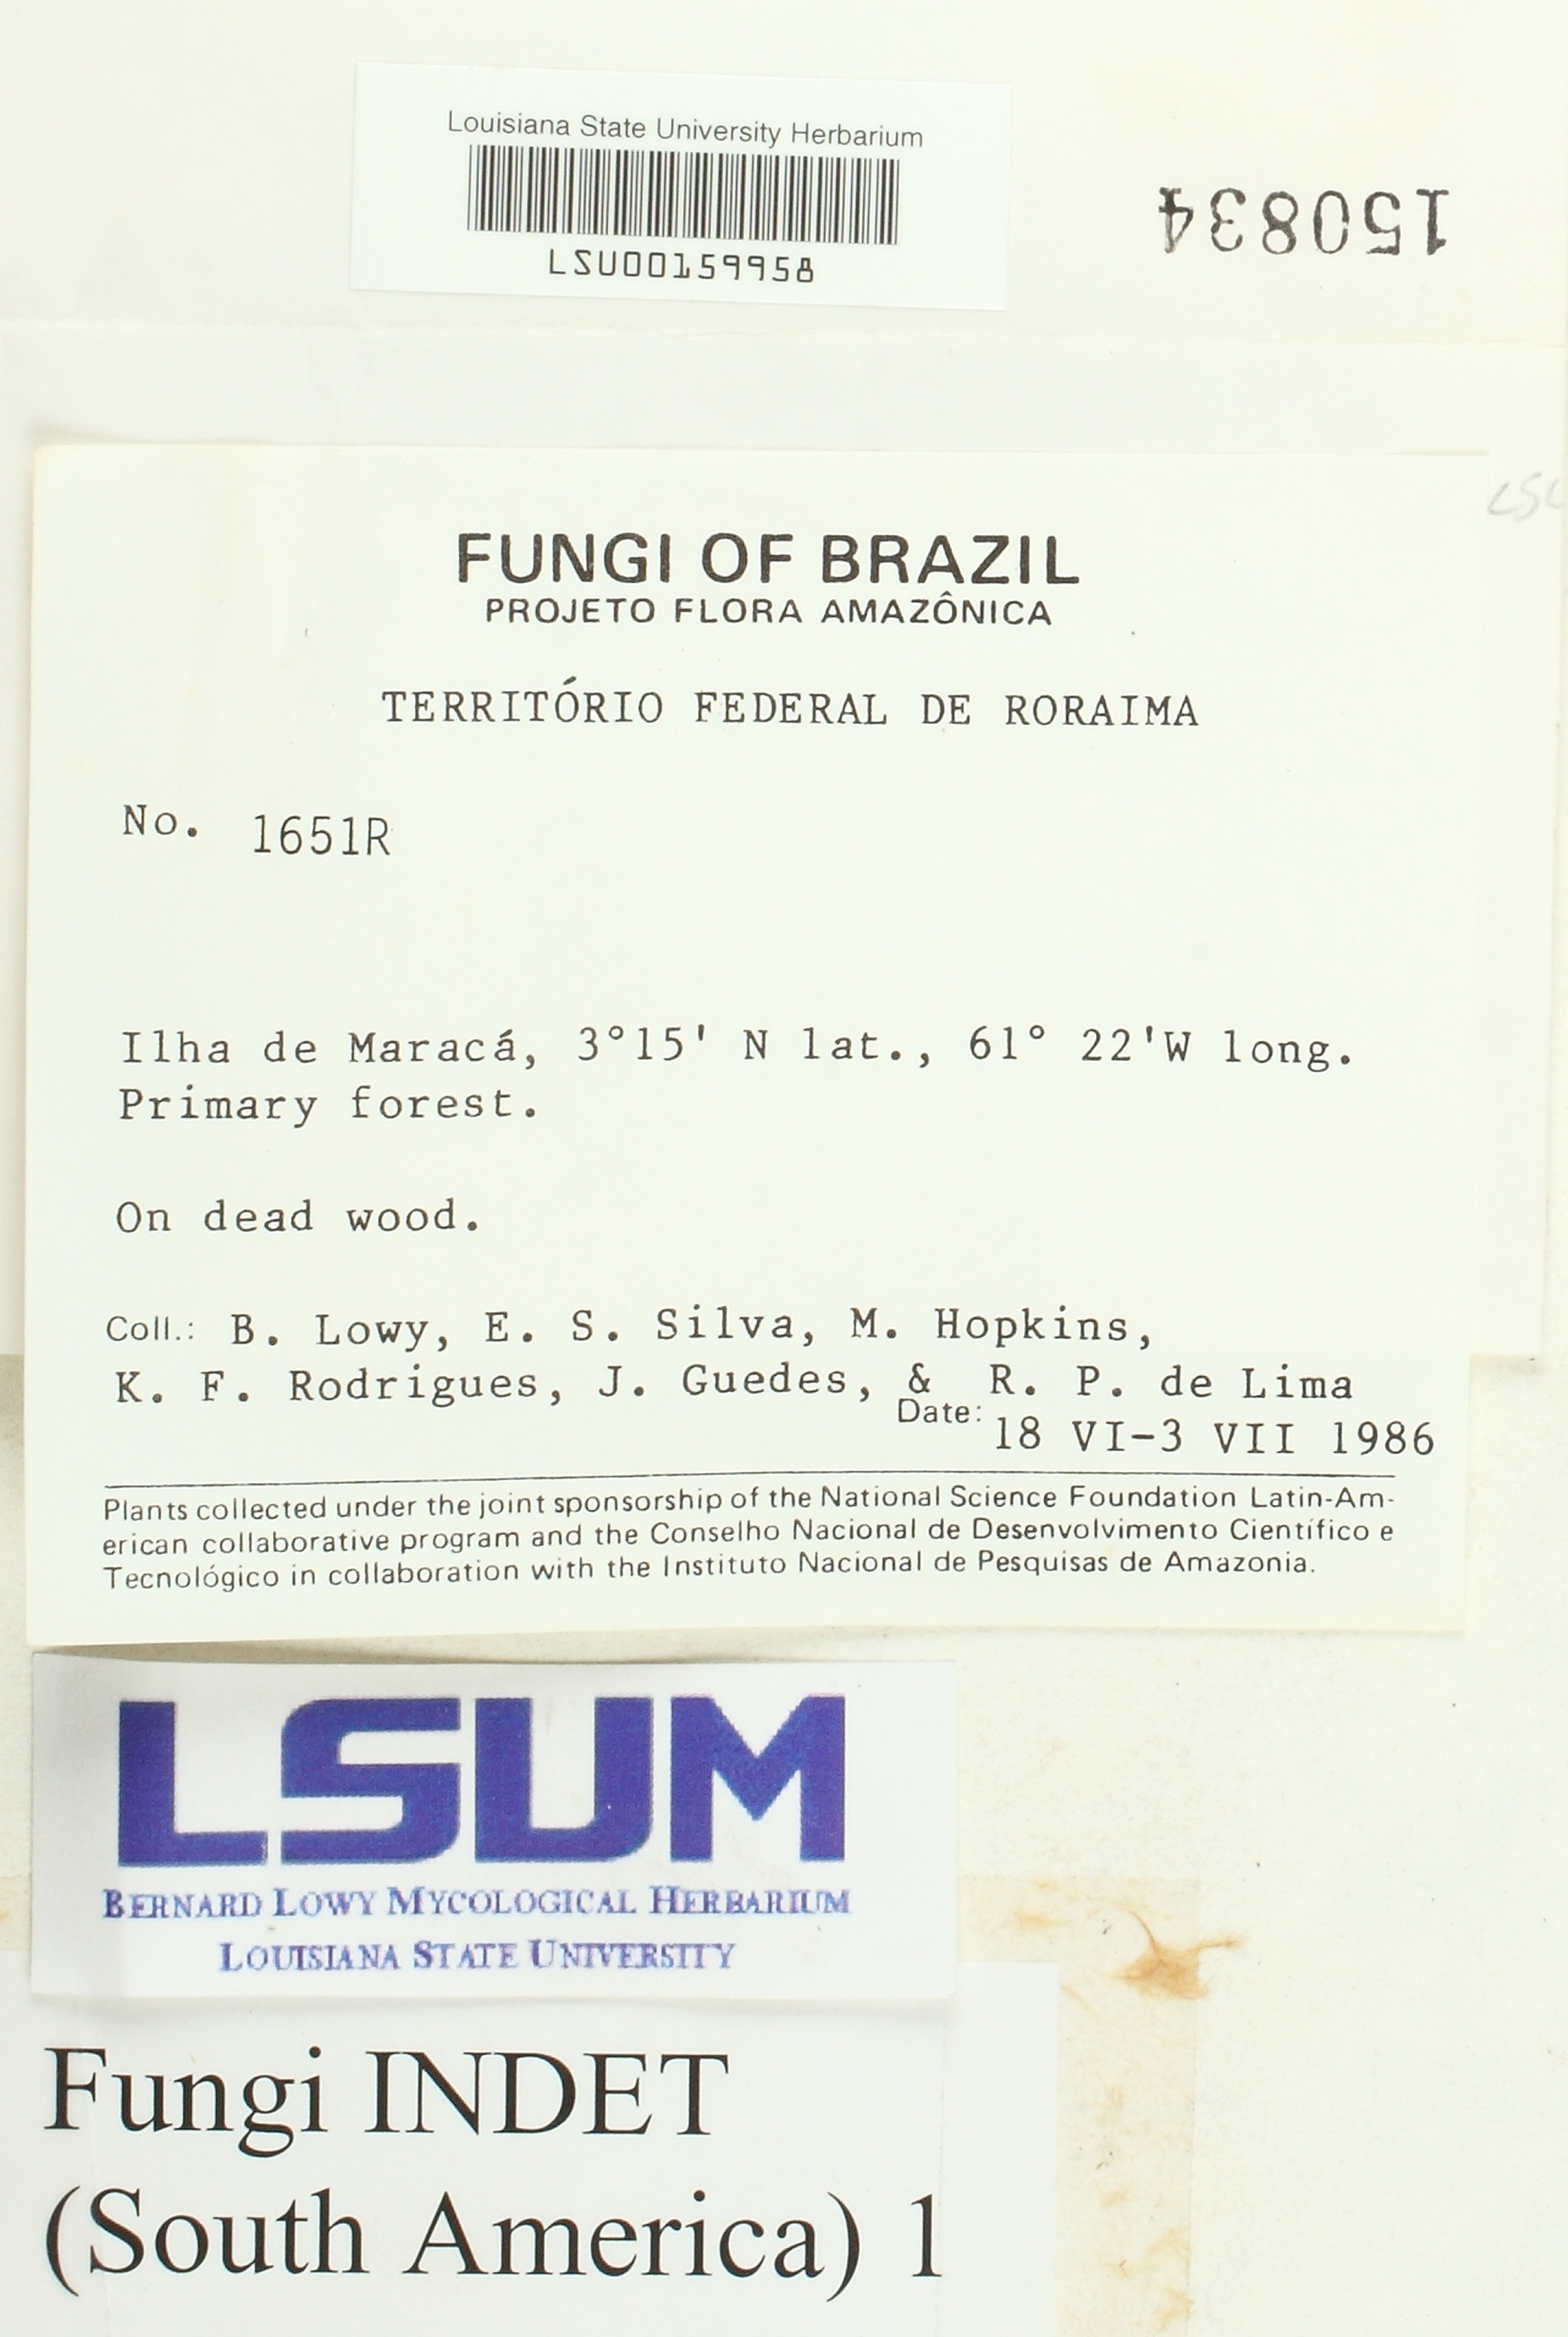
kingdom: Fungi
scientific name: Fungi
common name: Fungi
